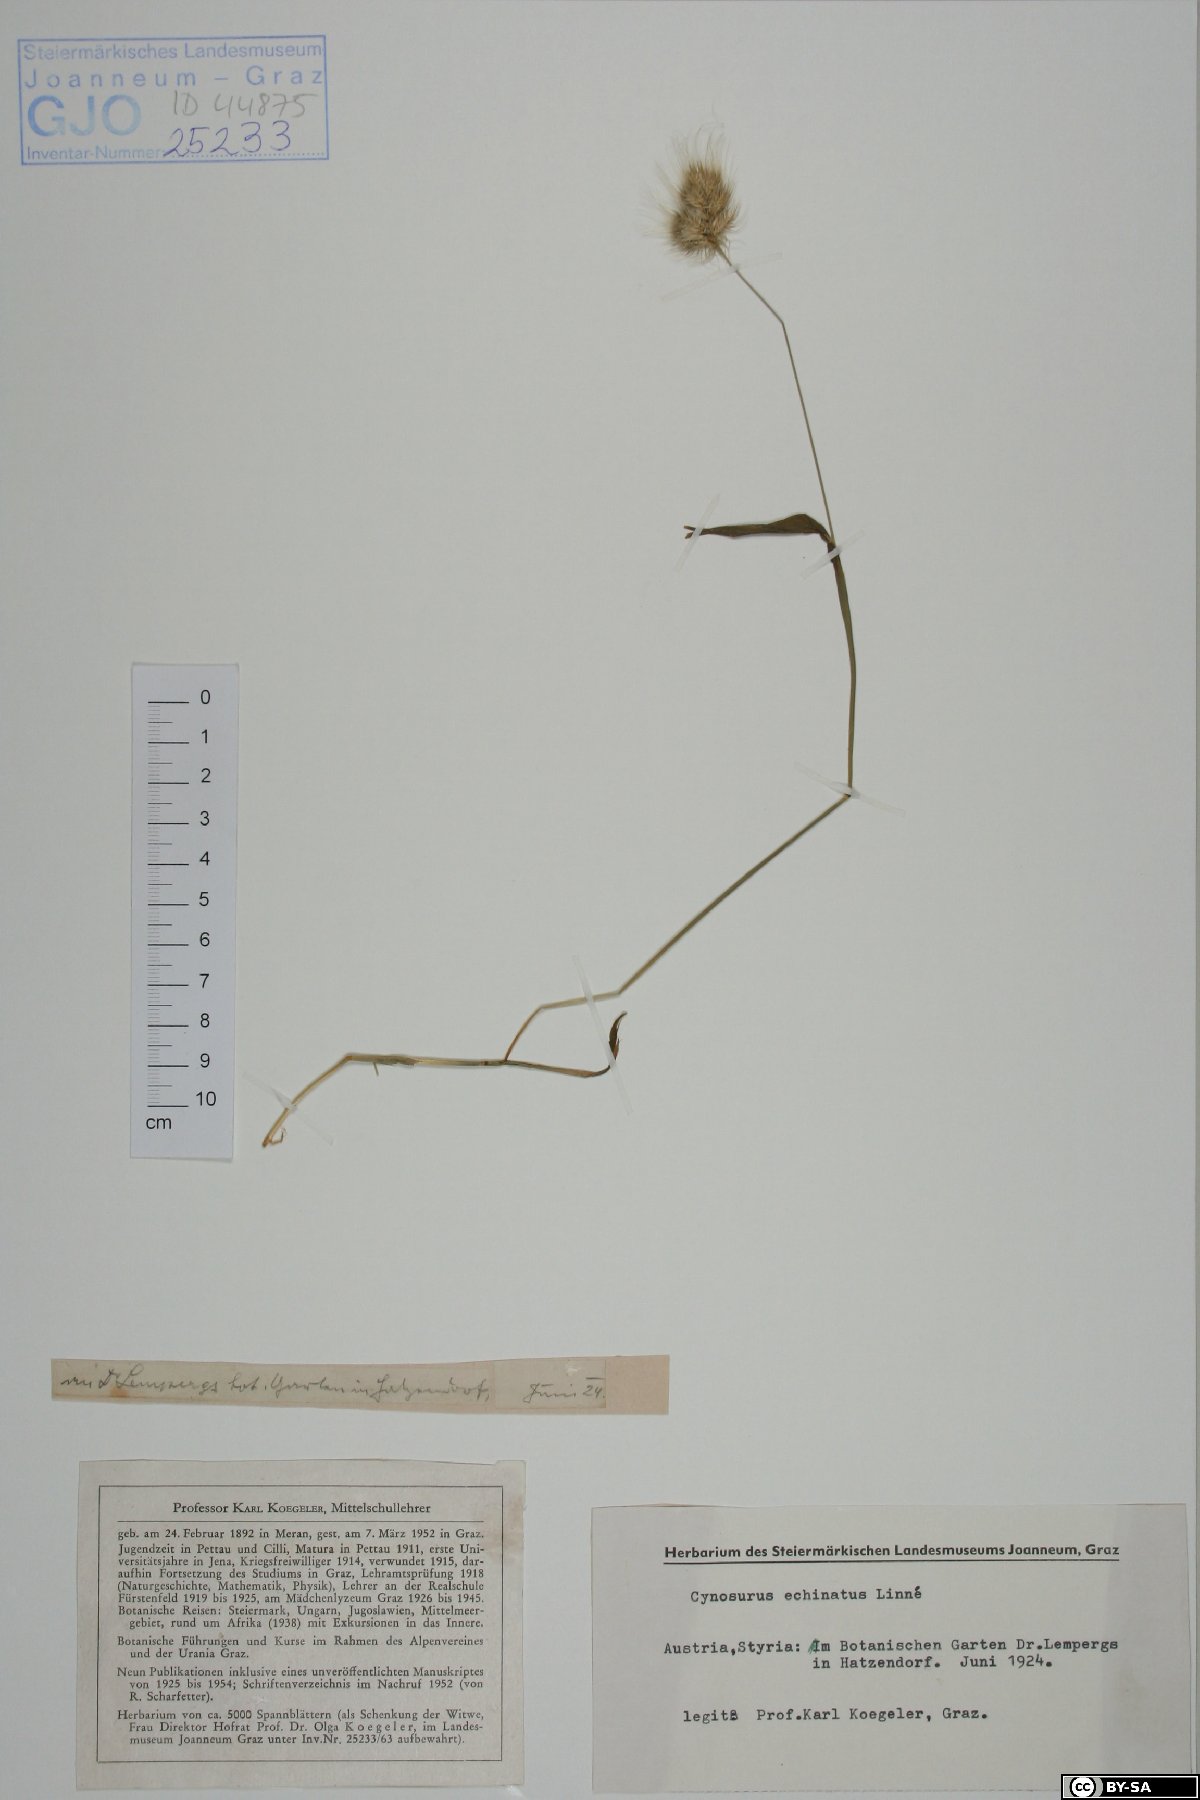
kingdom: Plantae
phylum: Tracheophyta
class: Liliopsida
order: Poales
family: Poaceae
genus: Cynosurus
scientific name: Cynosurus echinatus
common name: Rough dog's-tail
